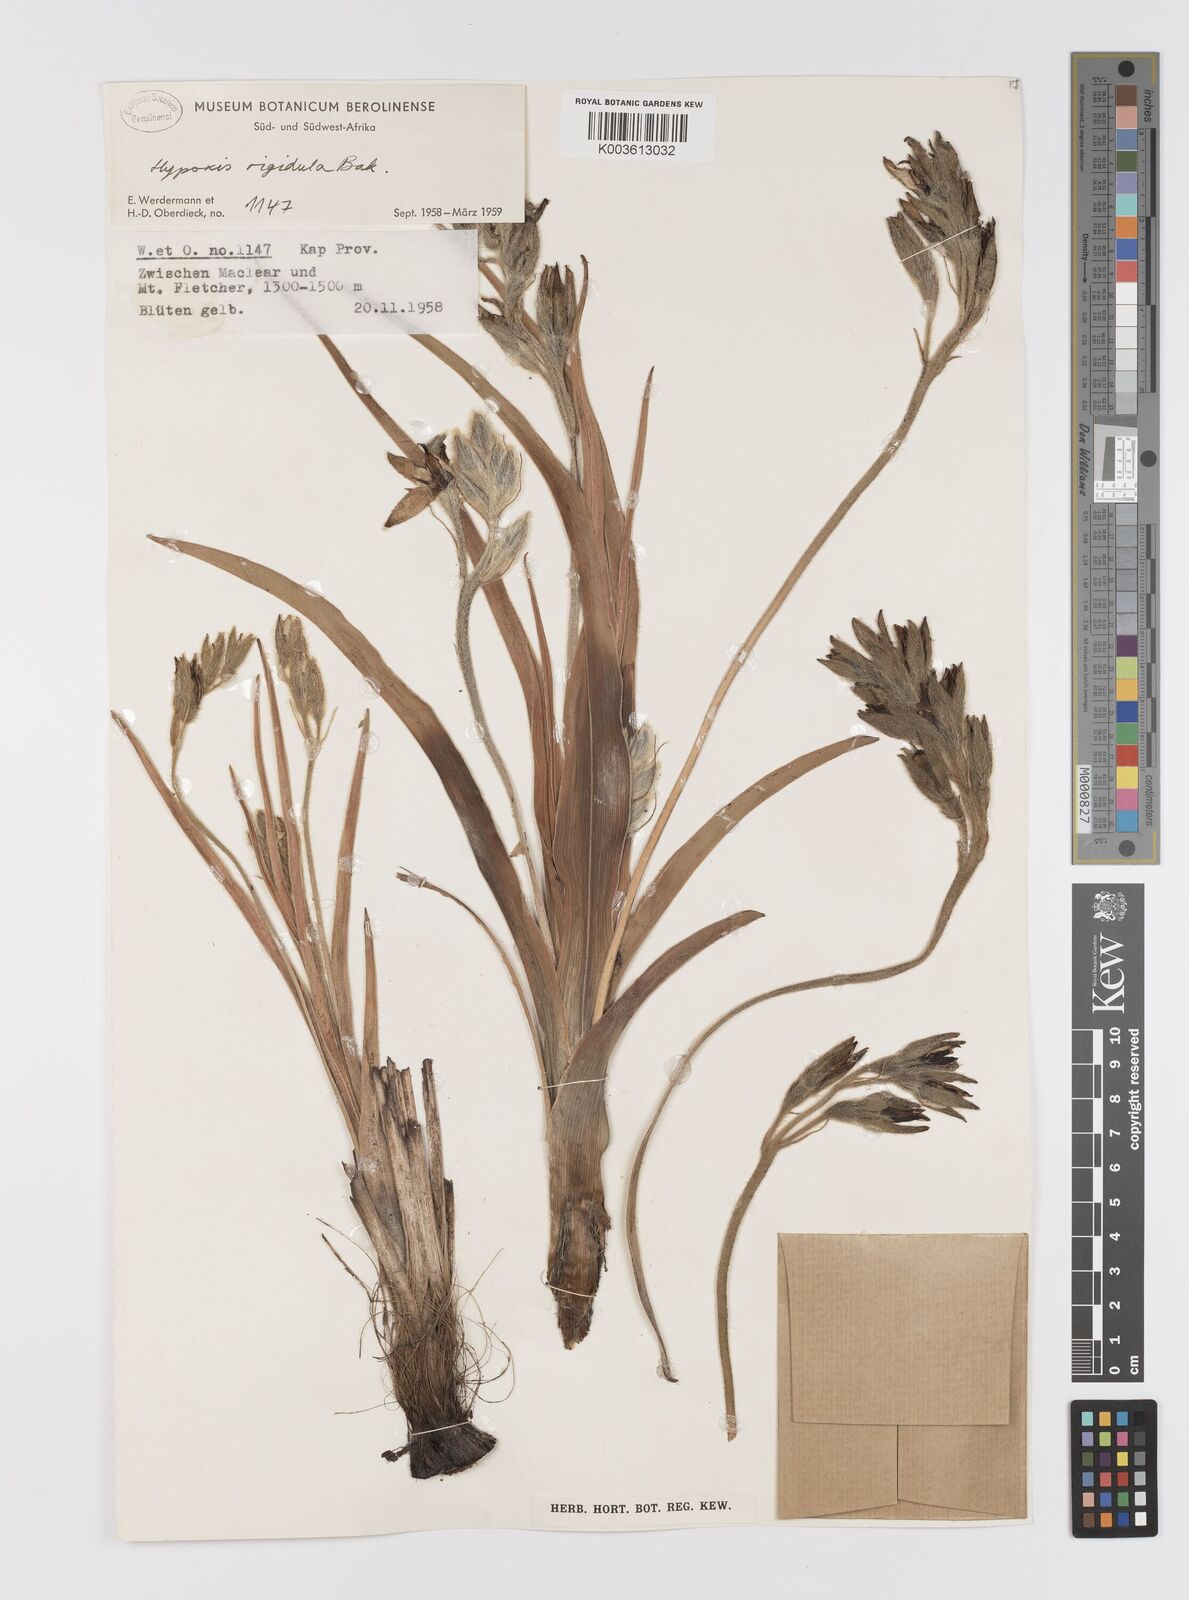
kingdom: Plantae
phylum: Tracheophyta
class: Liliopsida
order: Asparagales
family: Hypoxidaceae
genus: Hypoxis
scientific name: Hypoxis obtusa
